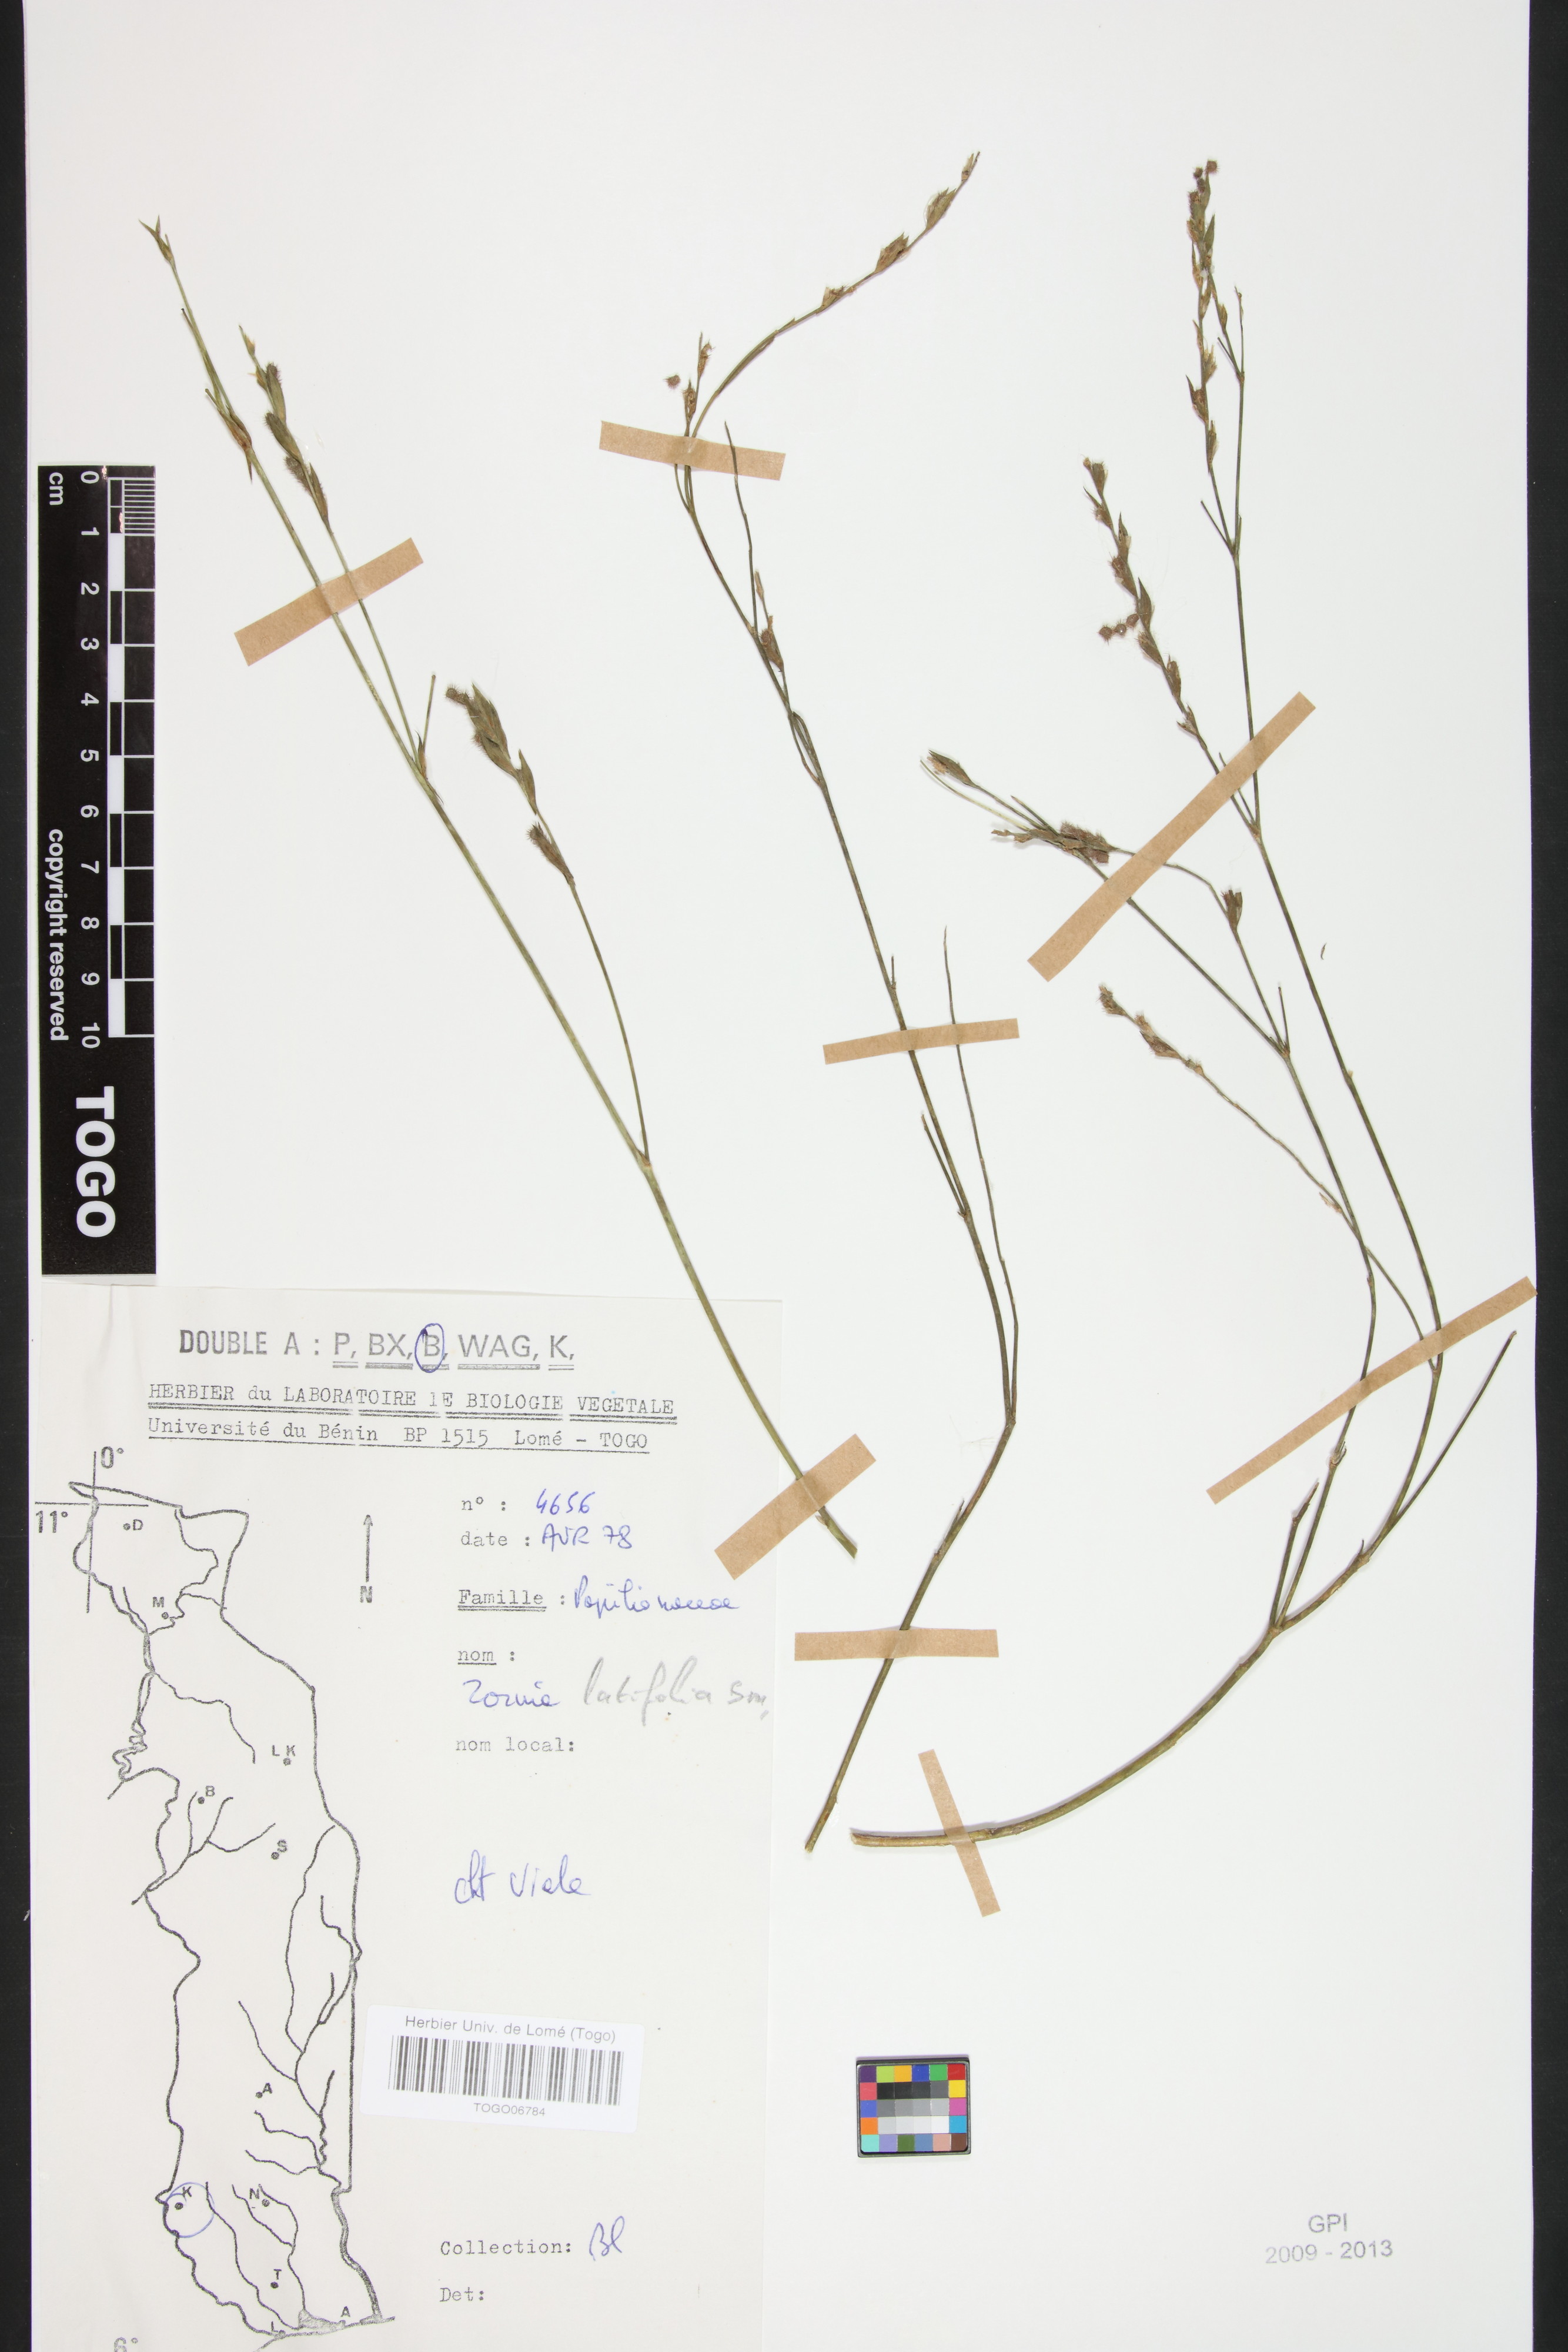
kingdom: Plantae
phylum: Tracheophyta
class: Magnoliopsida
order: Fabales
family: Fabaceae
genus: Zornia
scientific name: Zornia latifolia
